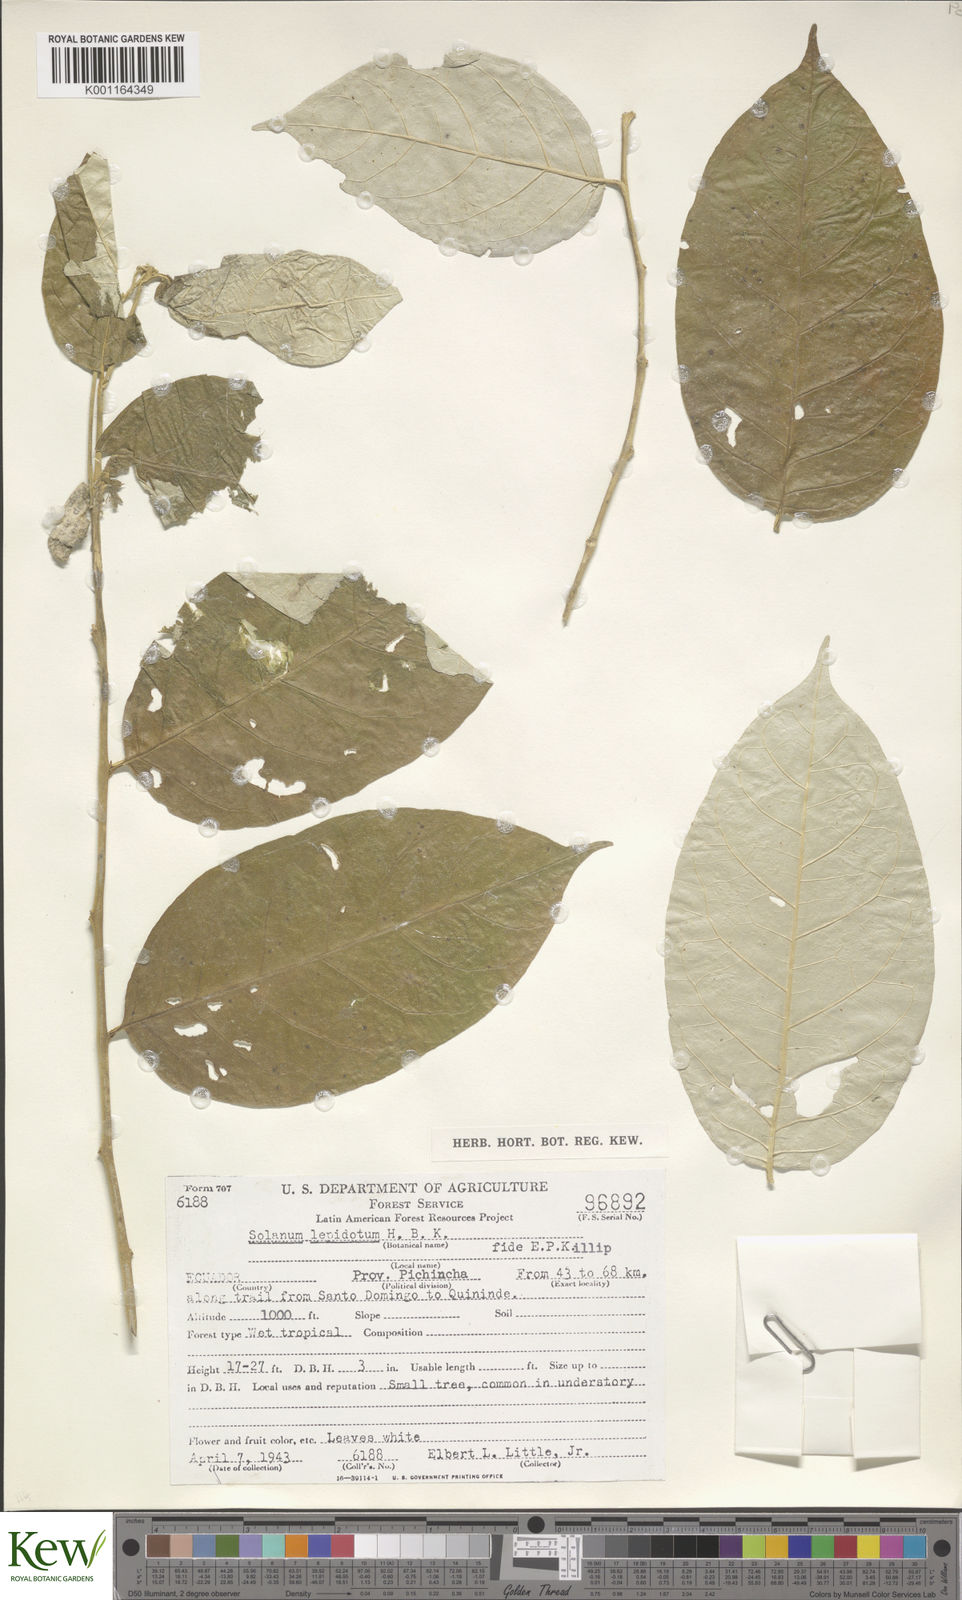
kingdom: Plantae
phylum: Tracheophyta
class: Magnoliopsida
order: Solanales
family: Solanaceae
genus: Solanum
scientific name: Solanum lepidotum
